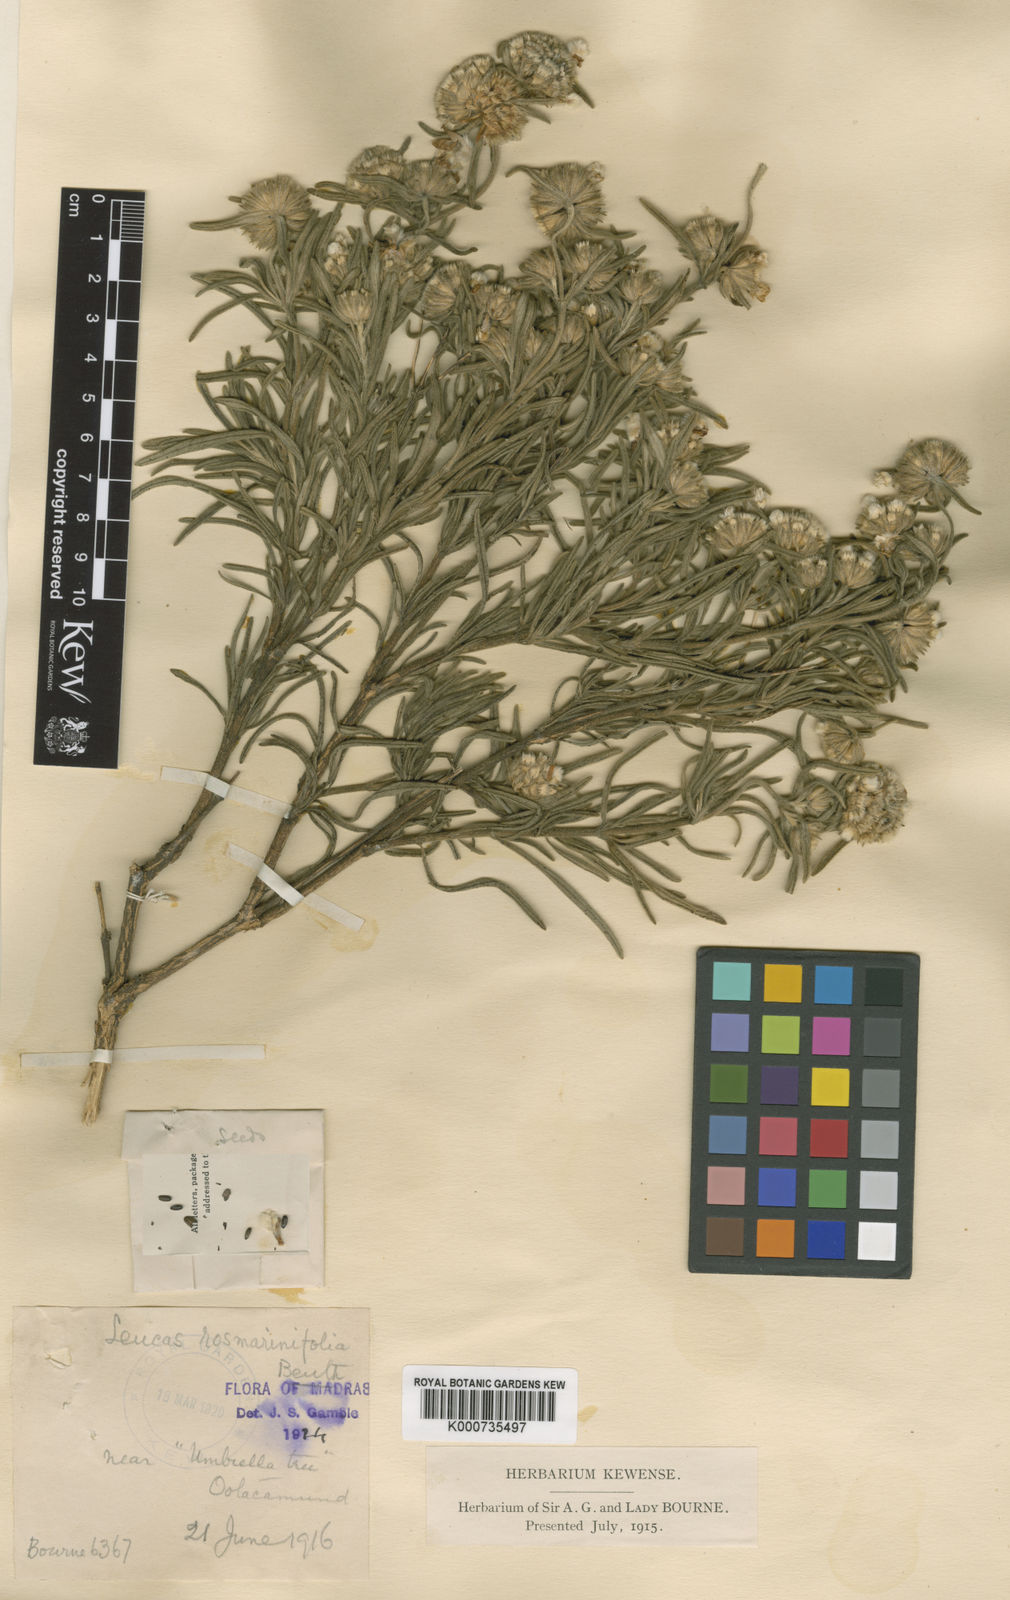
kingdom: Plantae
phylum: Tracheophyta
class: Magnoliopsida
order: Lamiales
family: Lamiaceae
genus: Leucas
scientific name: Leucas rosmarinifolia
